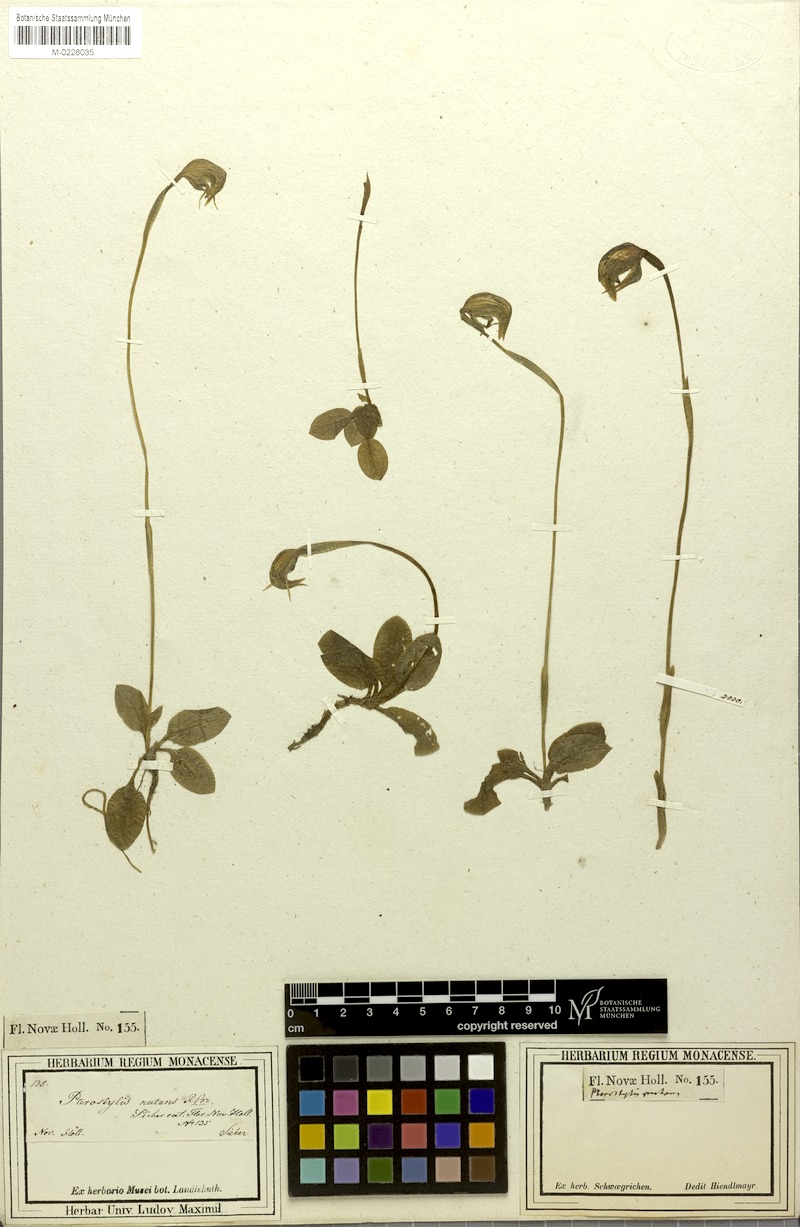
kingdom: Plantae
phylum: Tracheophyta
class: Liliopsida
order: Asparagales
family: Orchidaceae
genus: Pterostylis
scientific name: Pterostylis nutans
